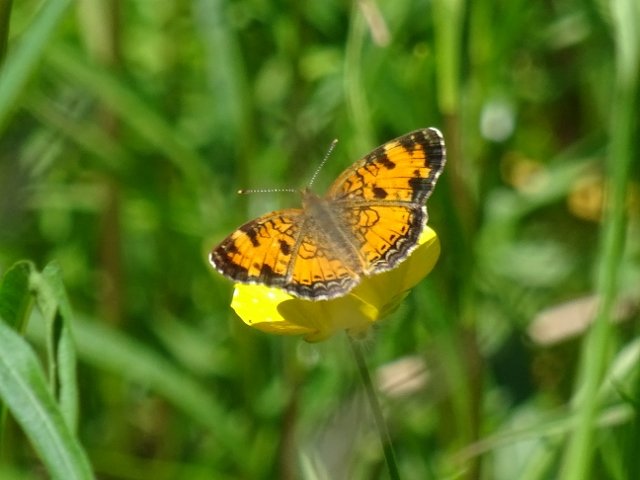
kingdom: Animalia
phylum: Arthropoda
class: Insecta
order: Lepidoptera
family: Nymphalidae
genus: Phyciodes
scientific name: Phyciodes tharos
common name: Northern Crescent
